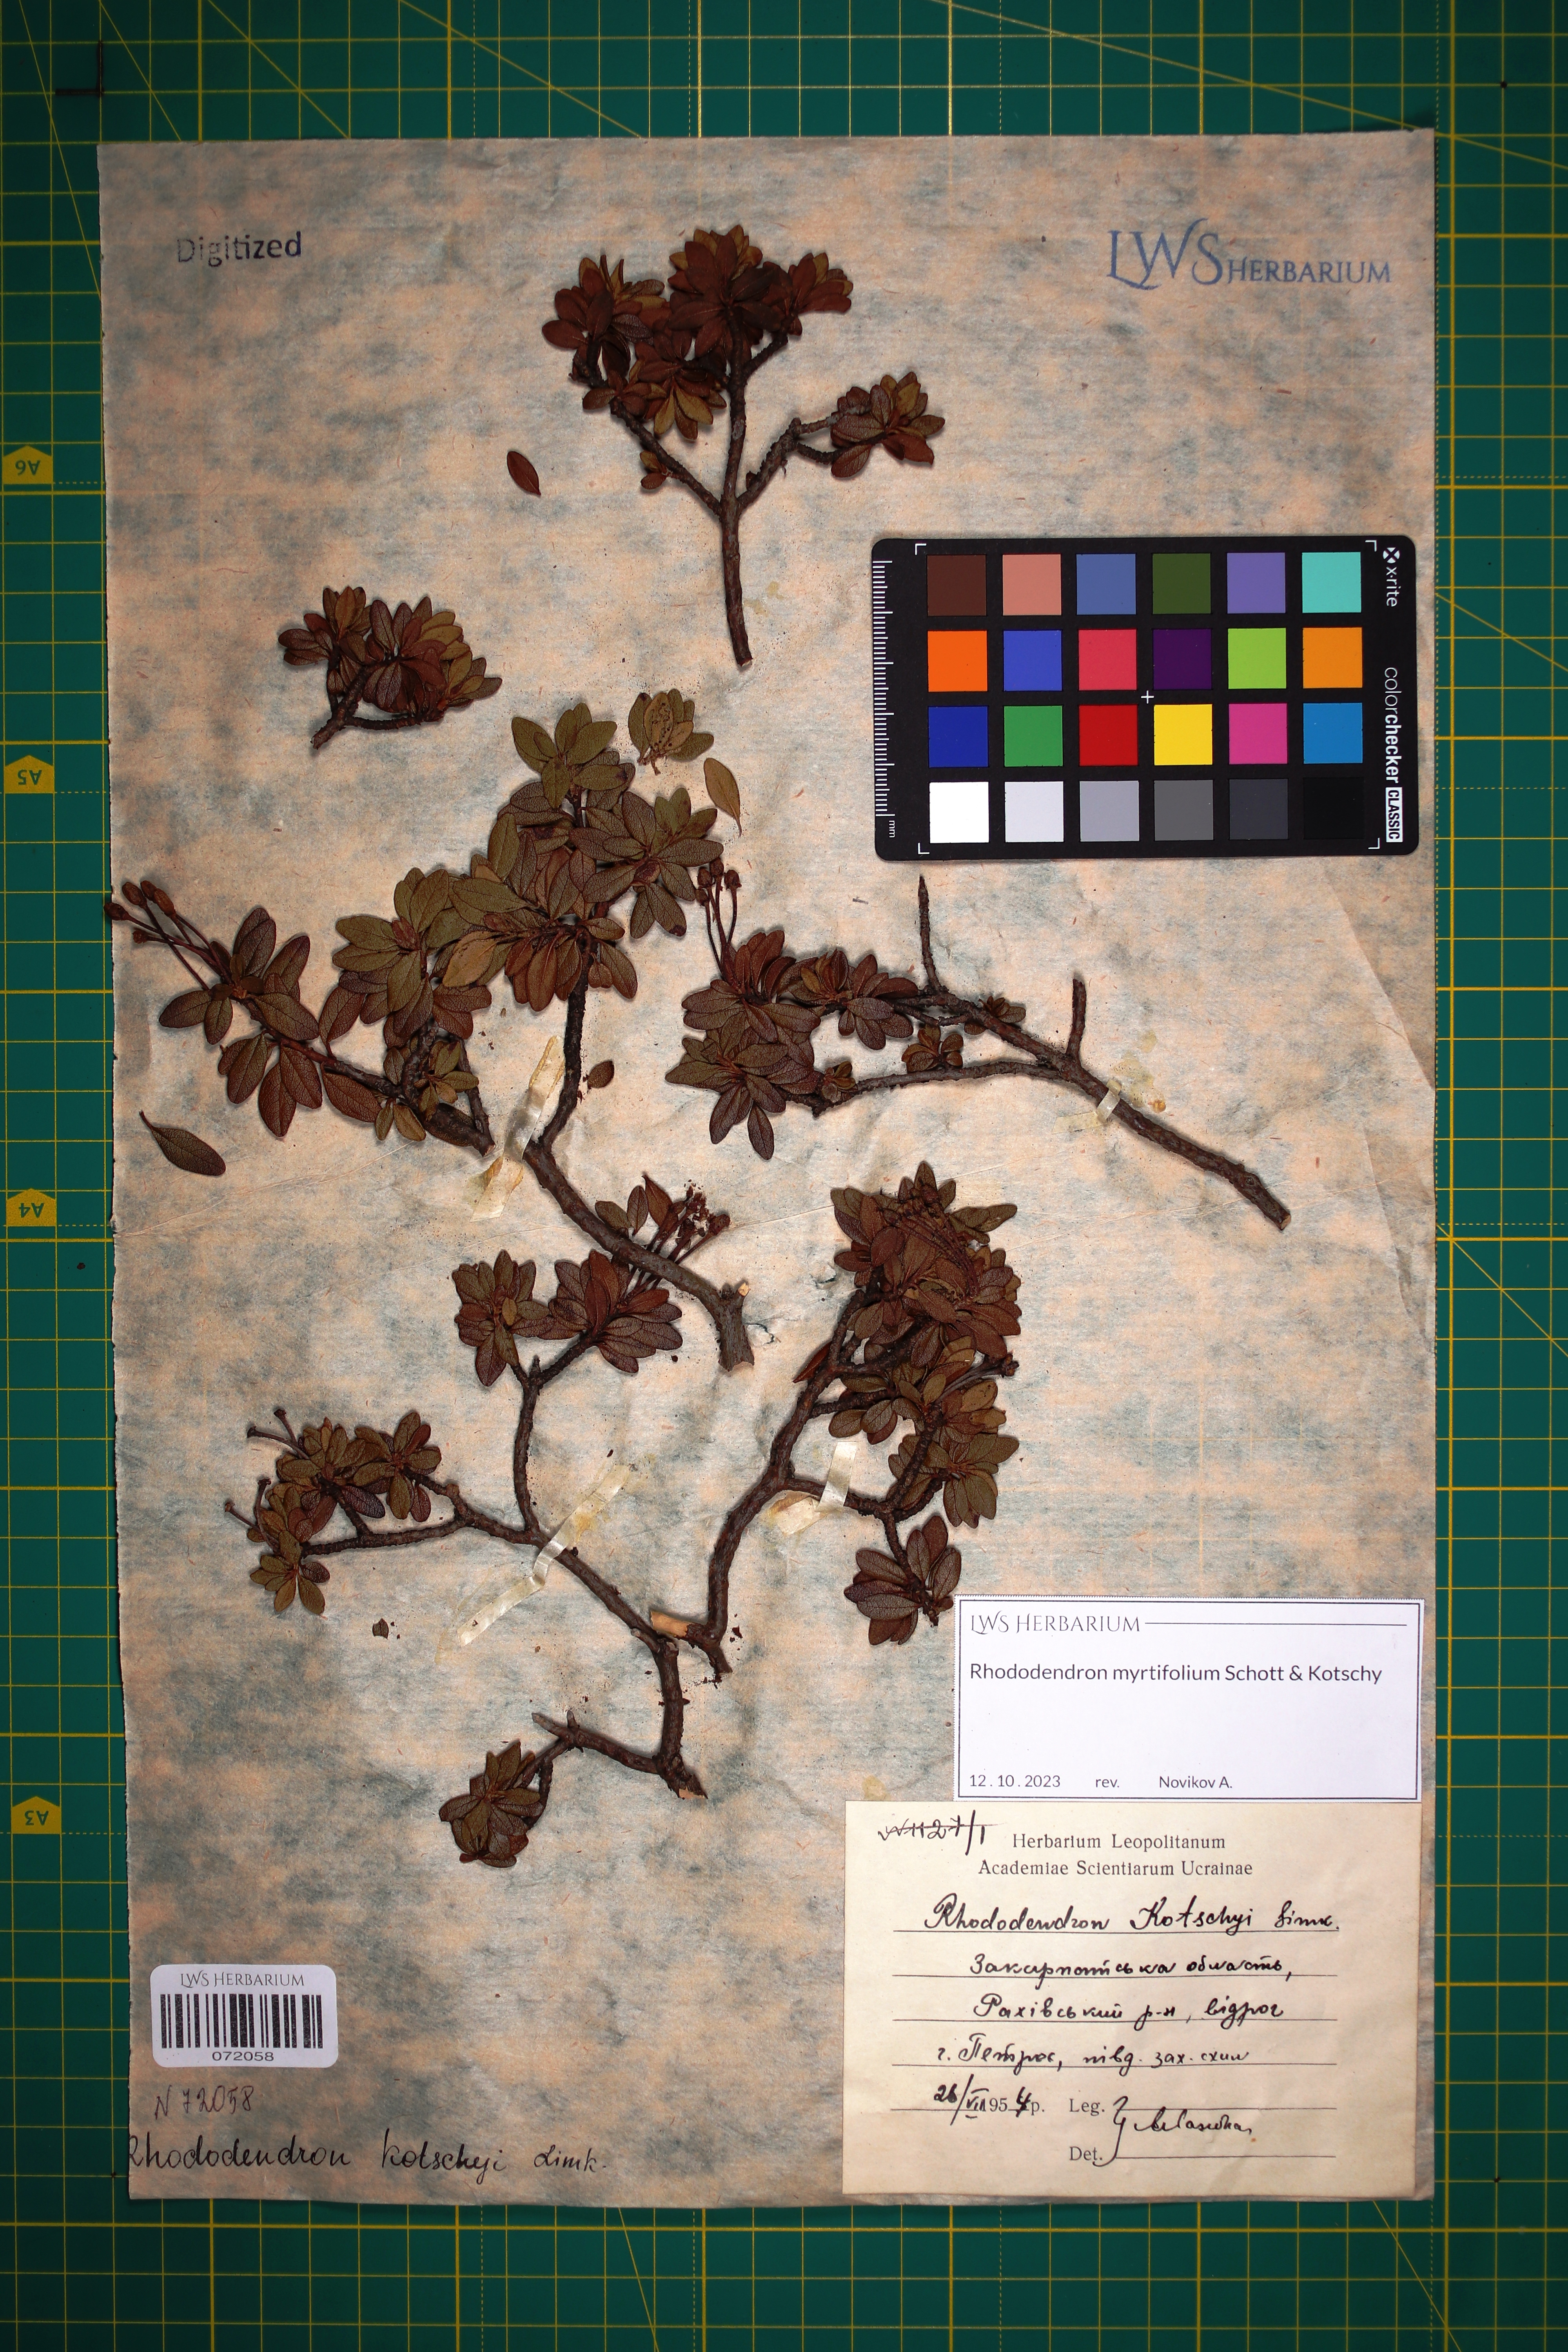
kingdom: Plantae
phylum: Tracheophyta
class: Magnoliopsida
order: Ericales
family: Ericaceae
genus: Rhododendron
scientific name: Rhododendron kotschyi
